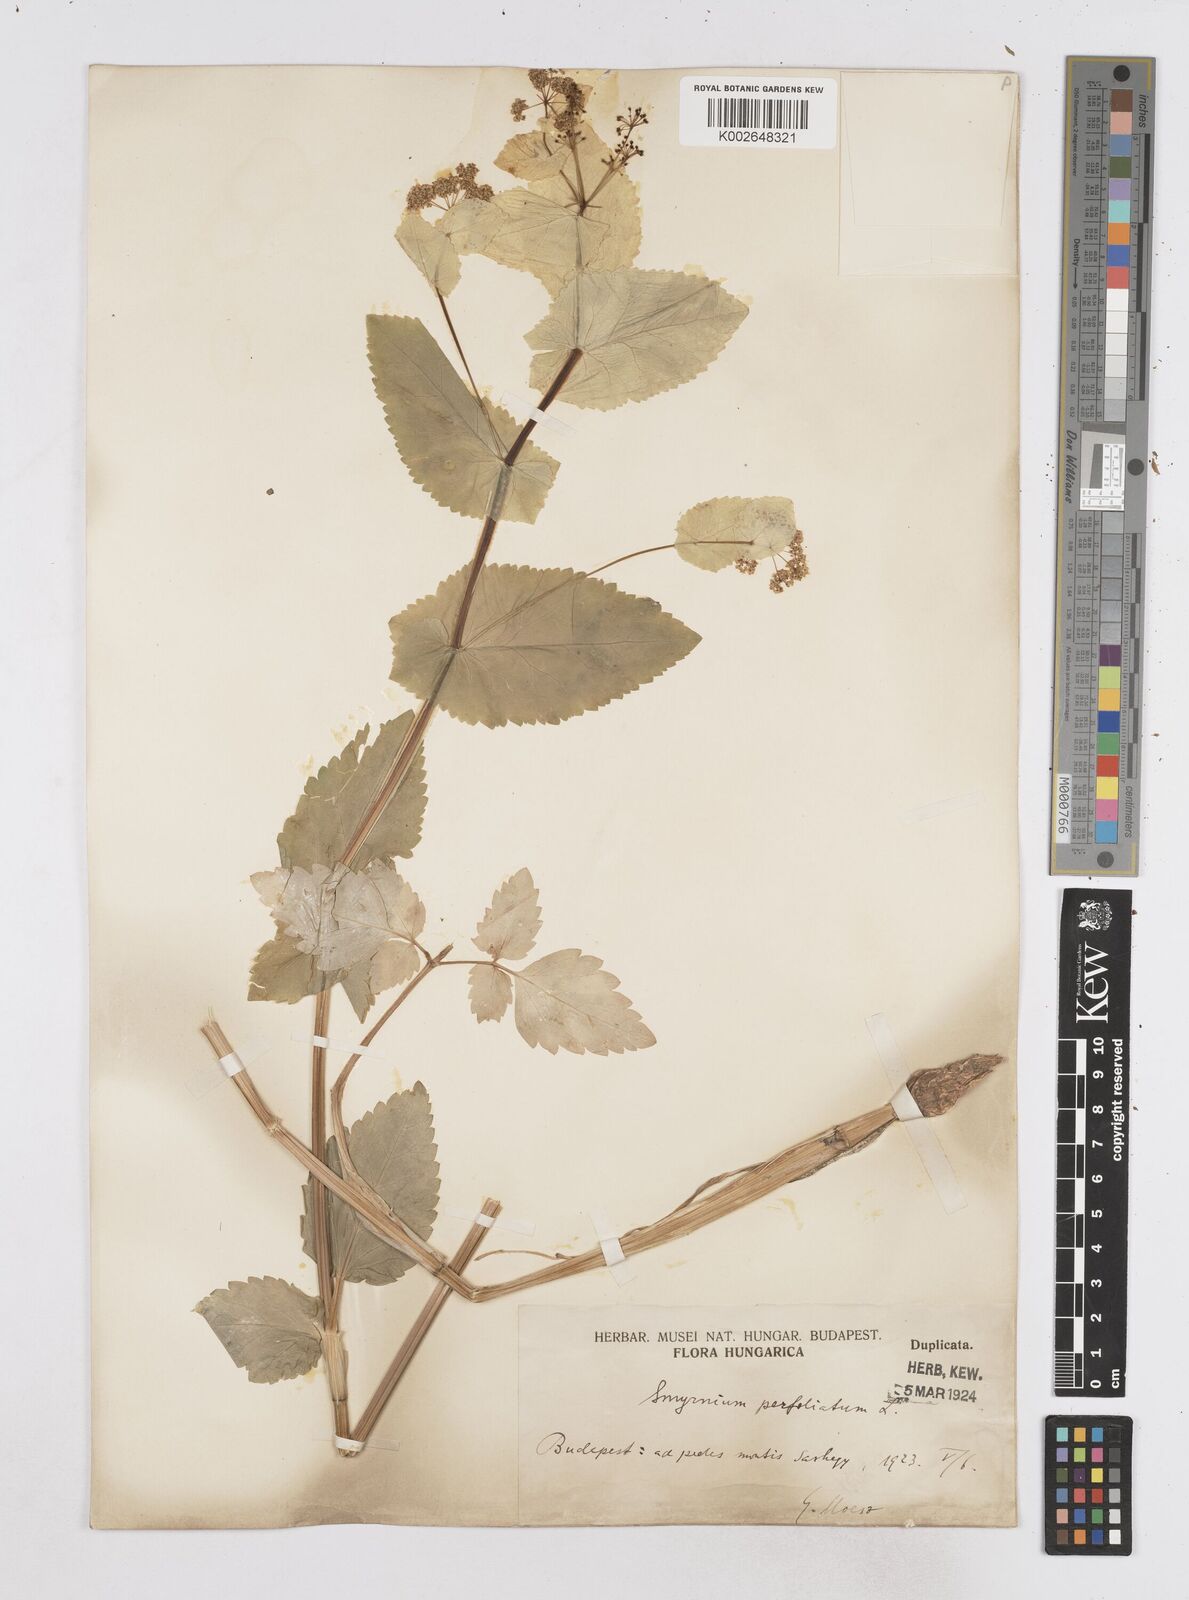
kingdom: Plantae
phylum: Tracheophyta
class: Magnoliopsida
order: Apiales
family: Apiaceae
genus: Smyrnium
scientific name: Smyrnium perfoliatum
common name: Perfoliate alexanders
